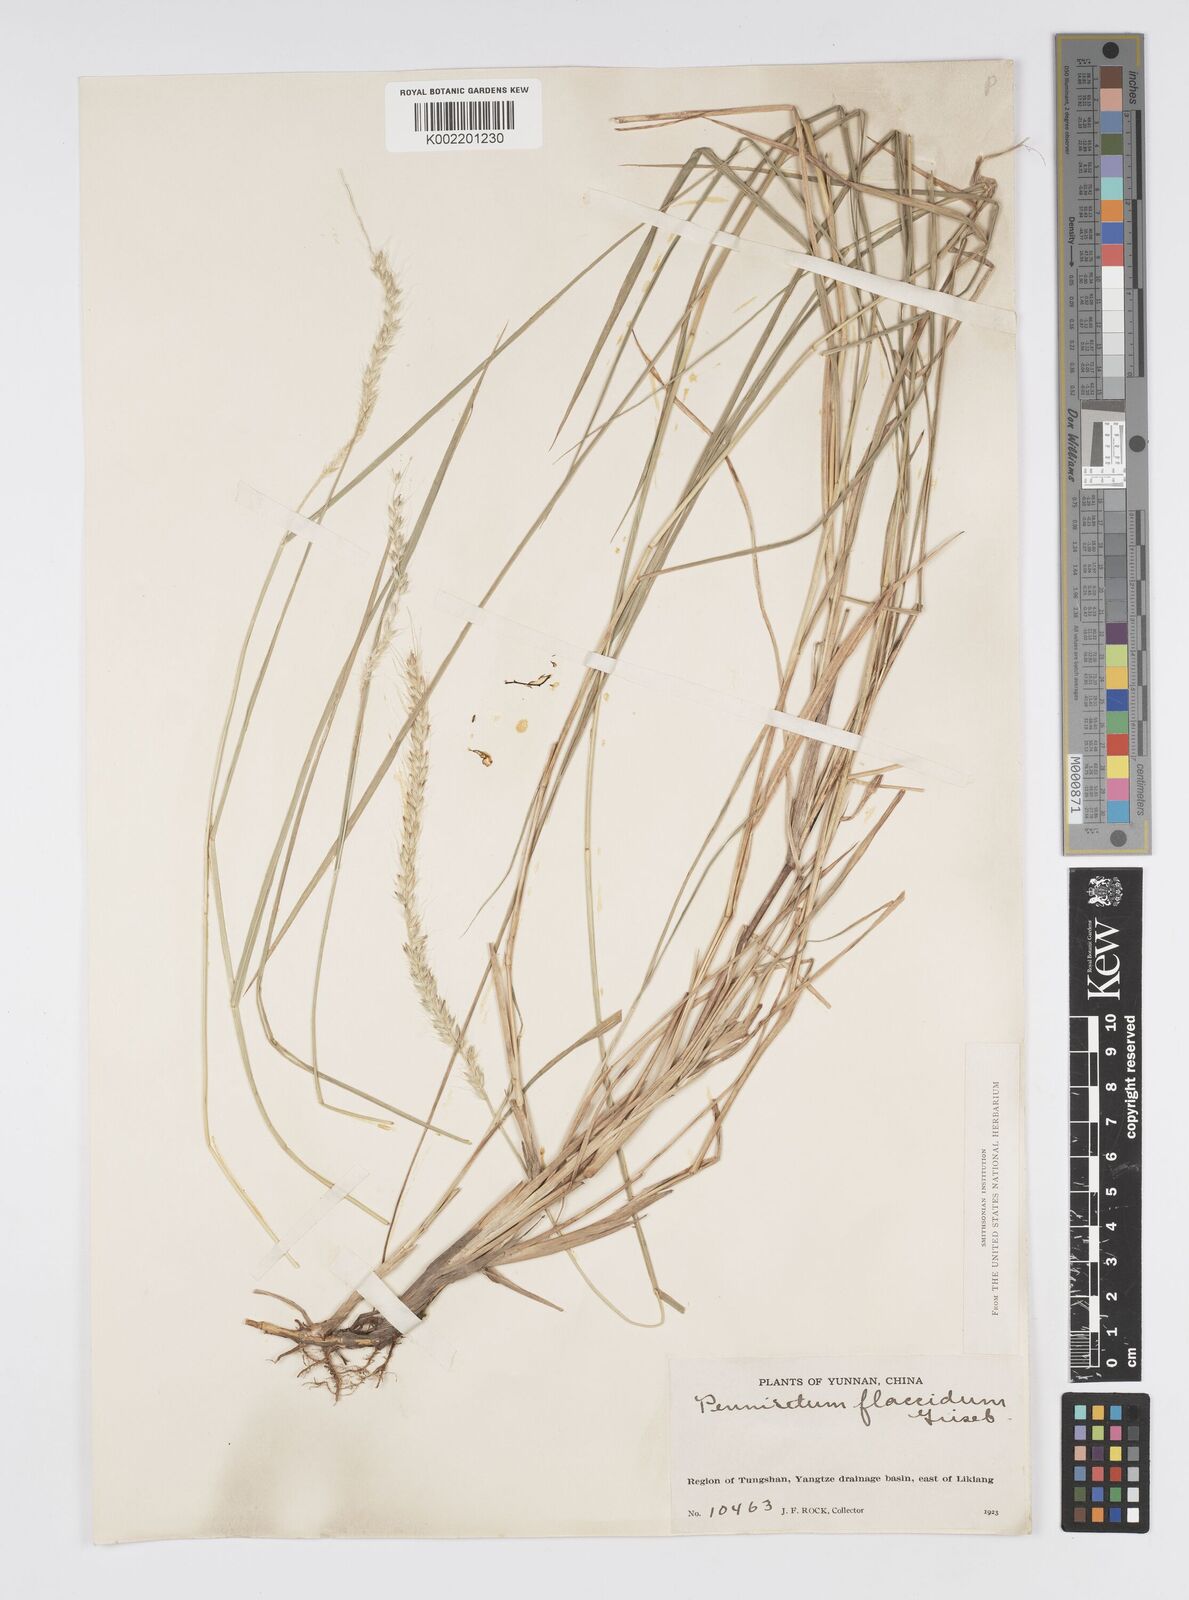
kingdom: Plantae
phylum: Tracheophyta
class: Liliopsida
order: Poales
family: Poaceae
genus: Cenchrus
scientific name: Cenchrus flaccidus
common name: Flaccid grass
